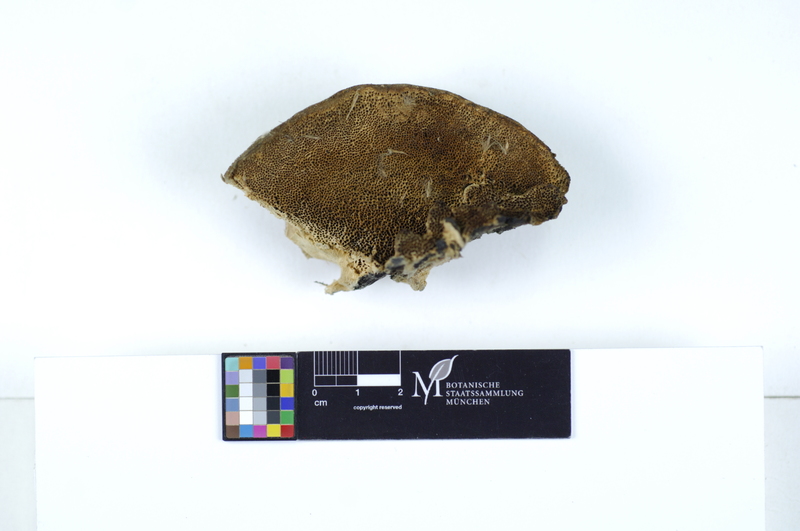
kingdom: Fungi
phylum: Basidiomycota
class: Agaricomycetes
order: Polyporales
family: Polyporaceae
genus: Trametes
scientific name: Trametes trogii
